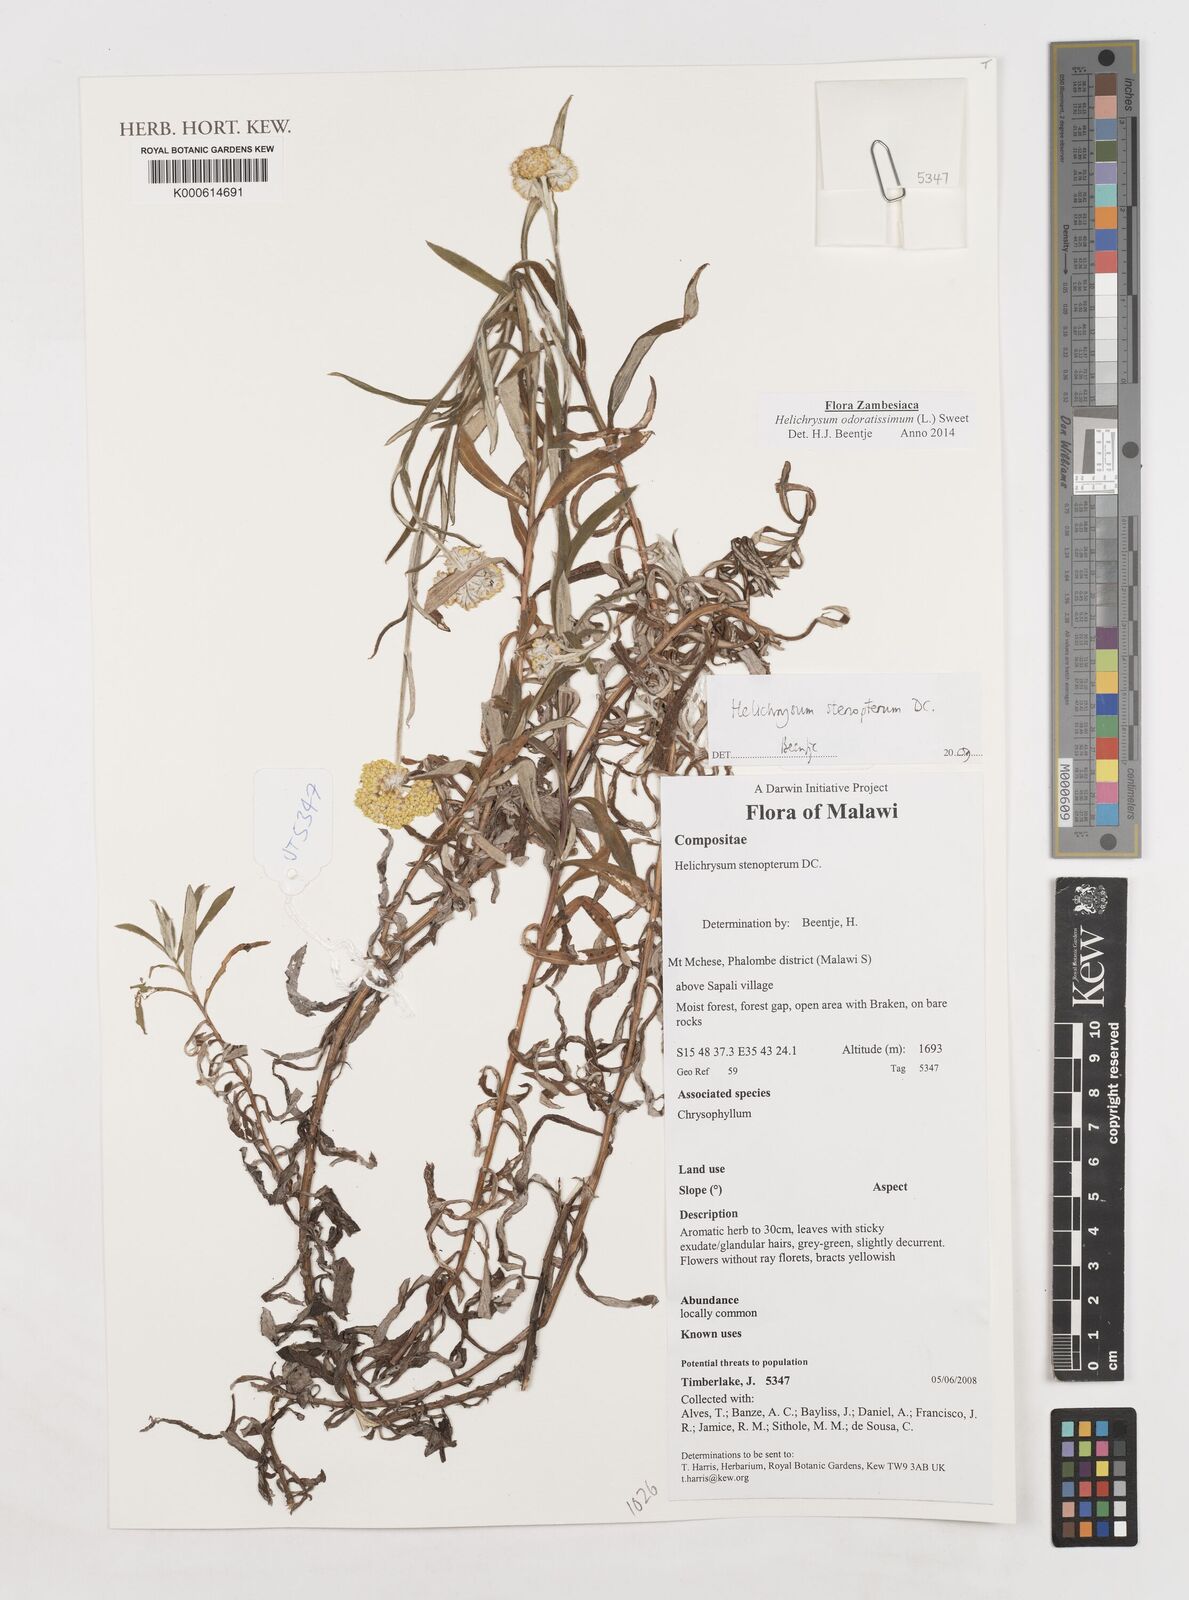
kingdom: Plantae
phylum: Tracheophyta
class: Magnoliopsida
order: Asterales
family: Asteraceae
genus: Helichrysum
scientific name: Helichrysum stenopterum
